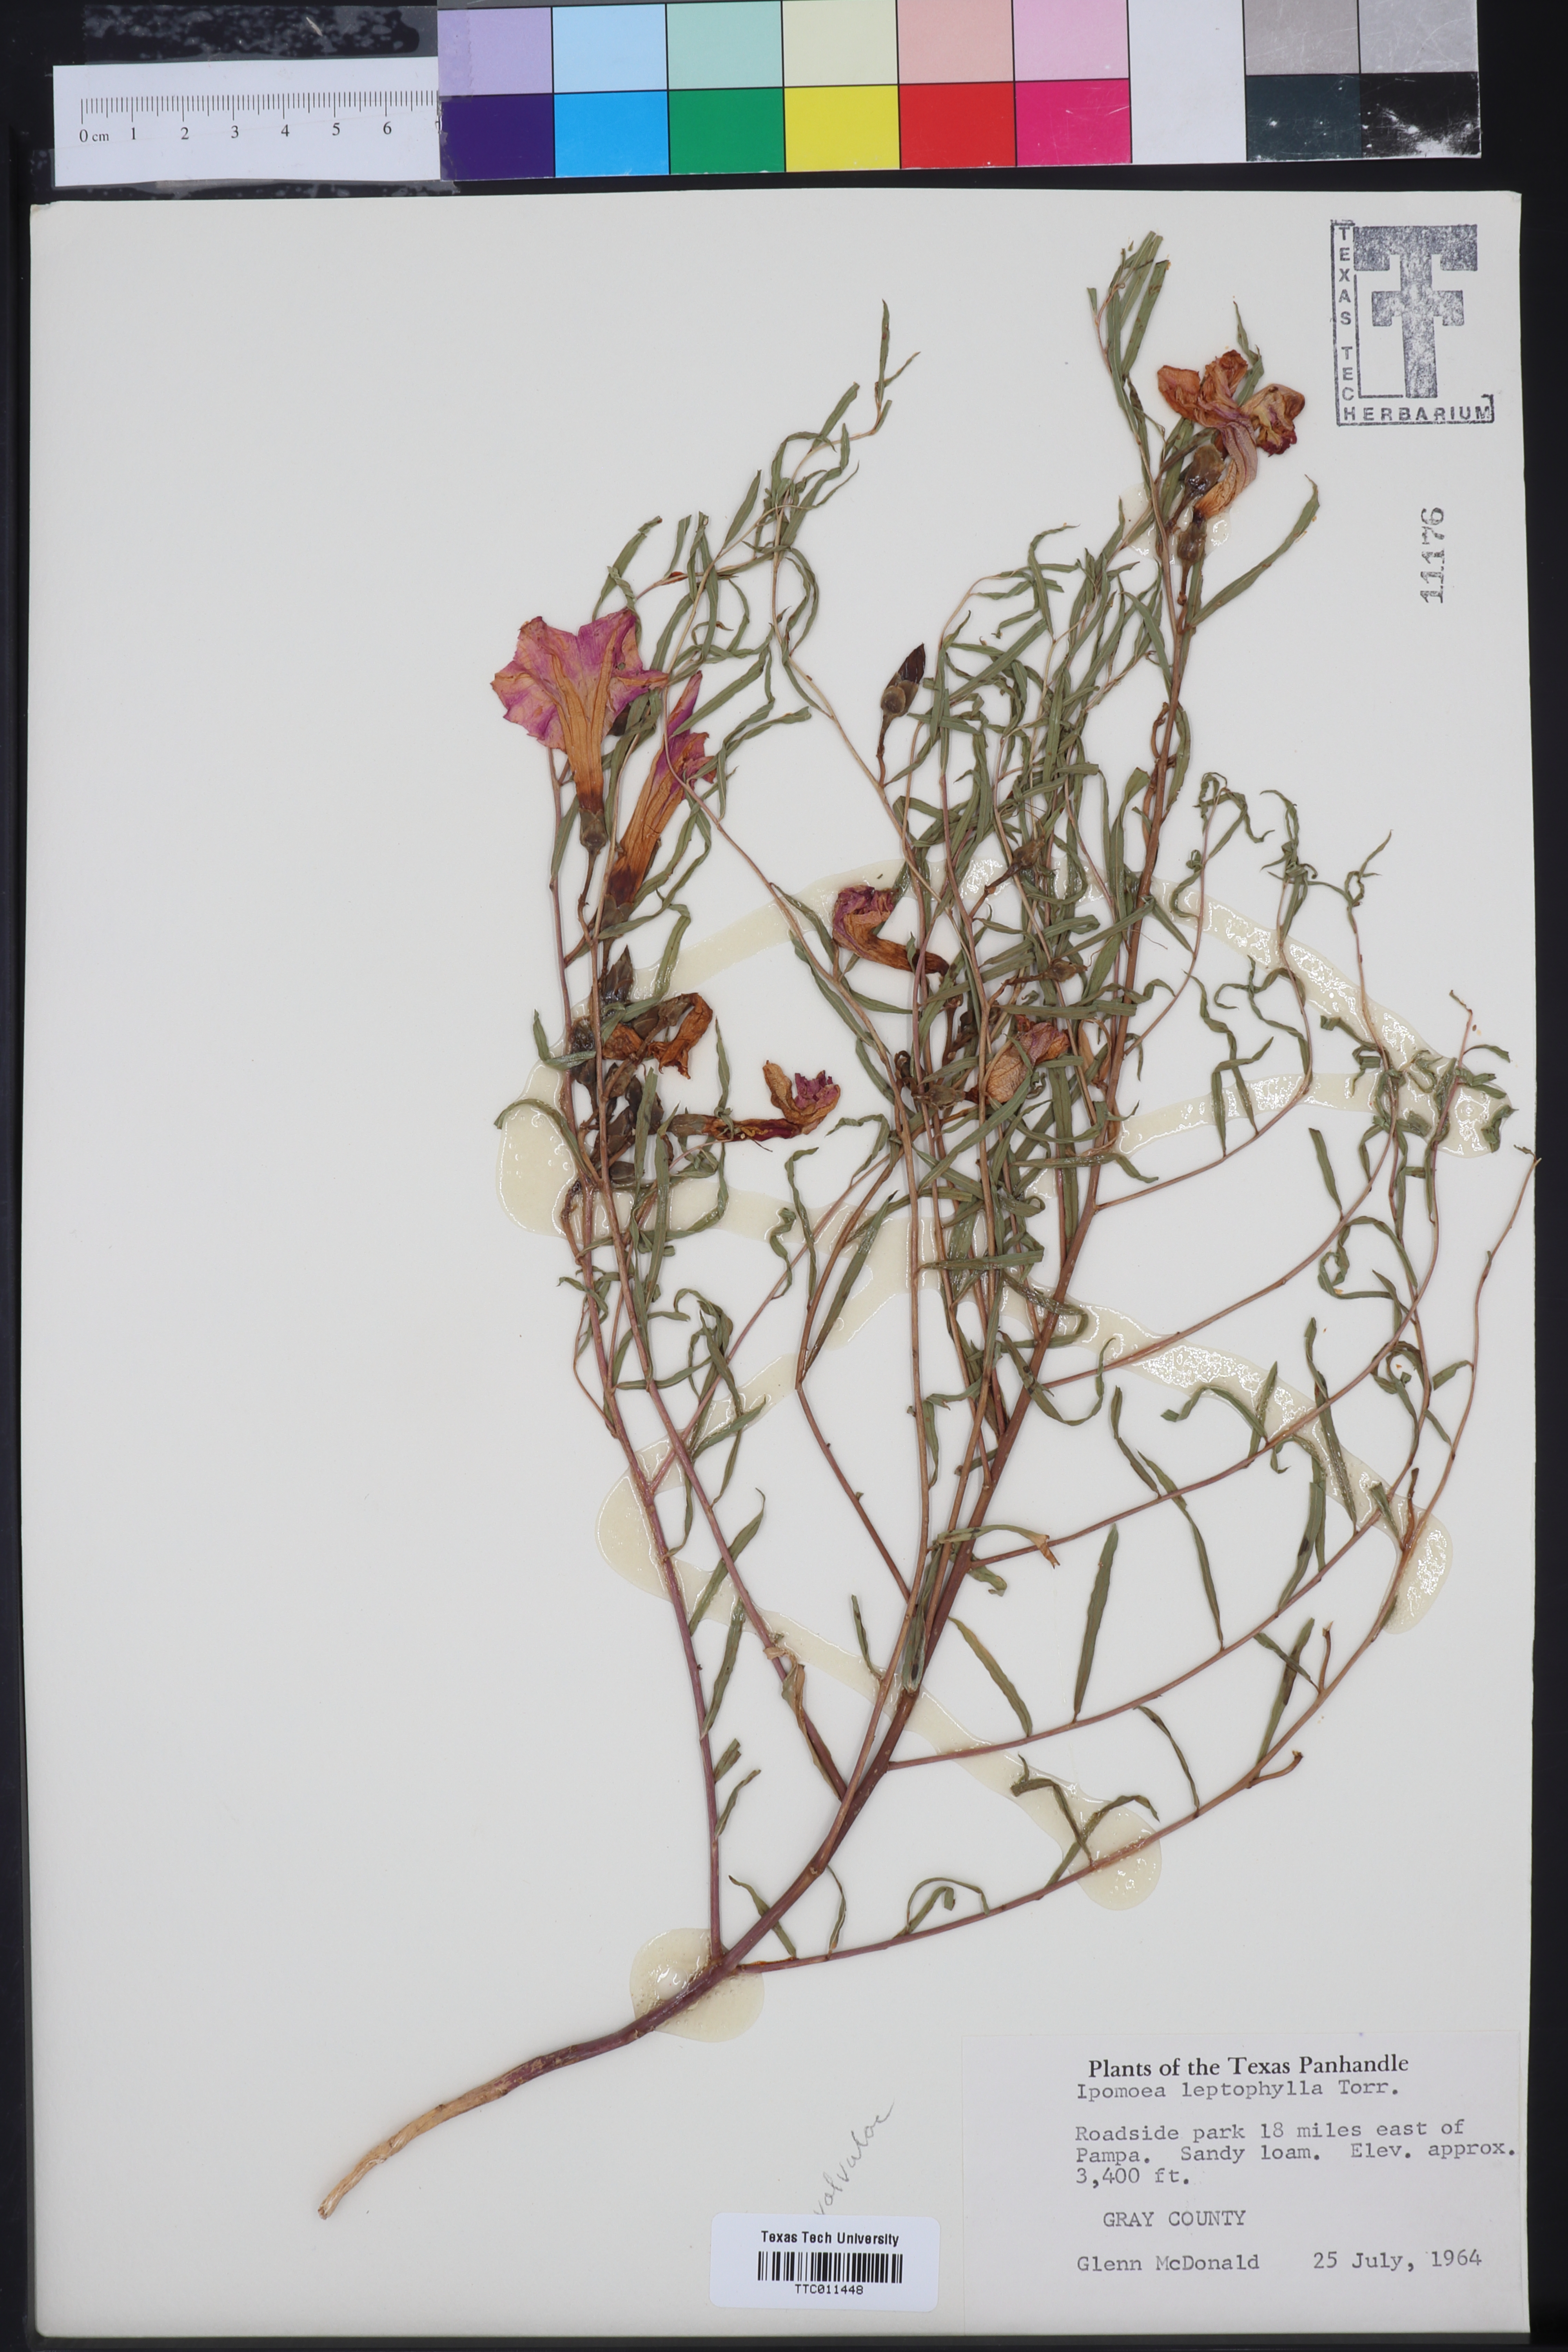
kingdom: Plantae
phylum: Tracheophyta
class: Magnoliopsida
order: Solanales
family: Convolvulaceae
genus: Ipomoea
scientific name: Ipomoea leptophylla
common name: Bush moonflower
